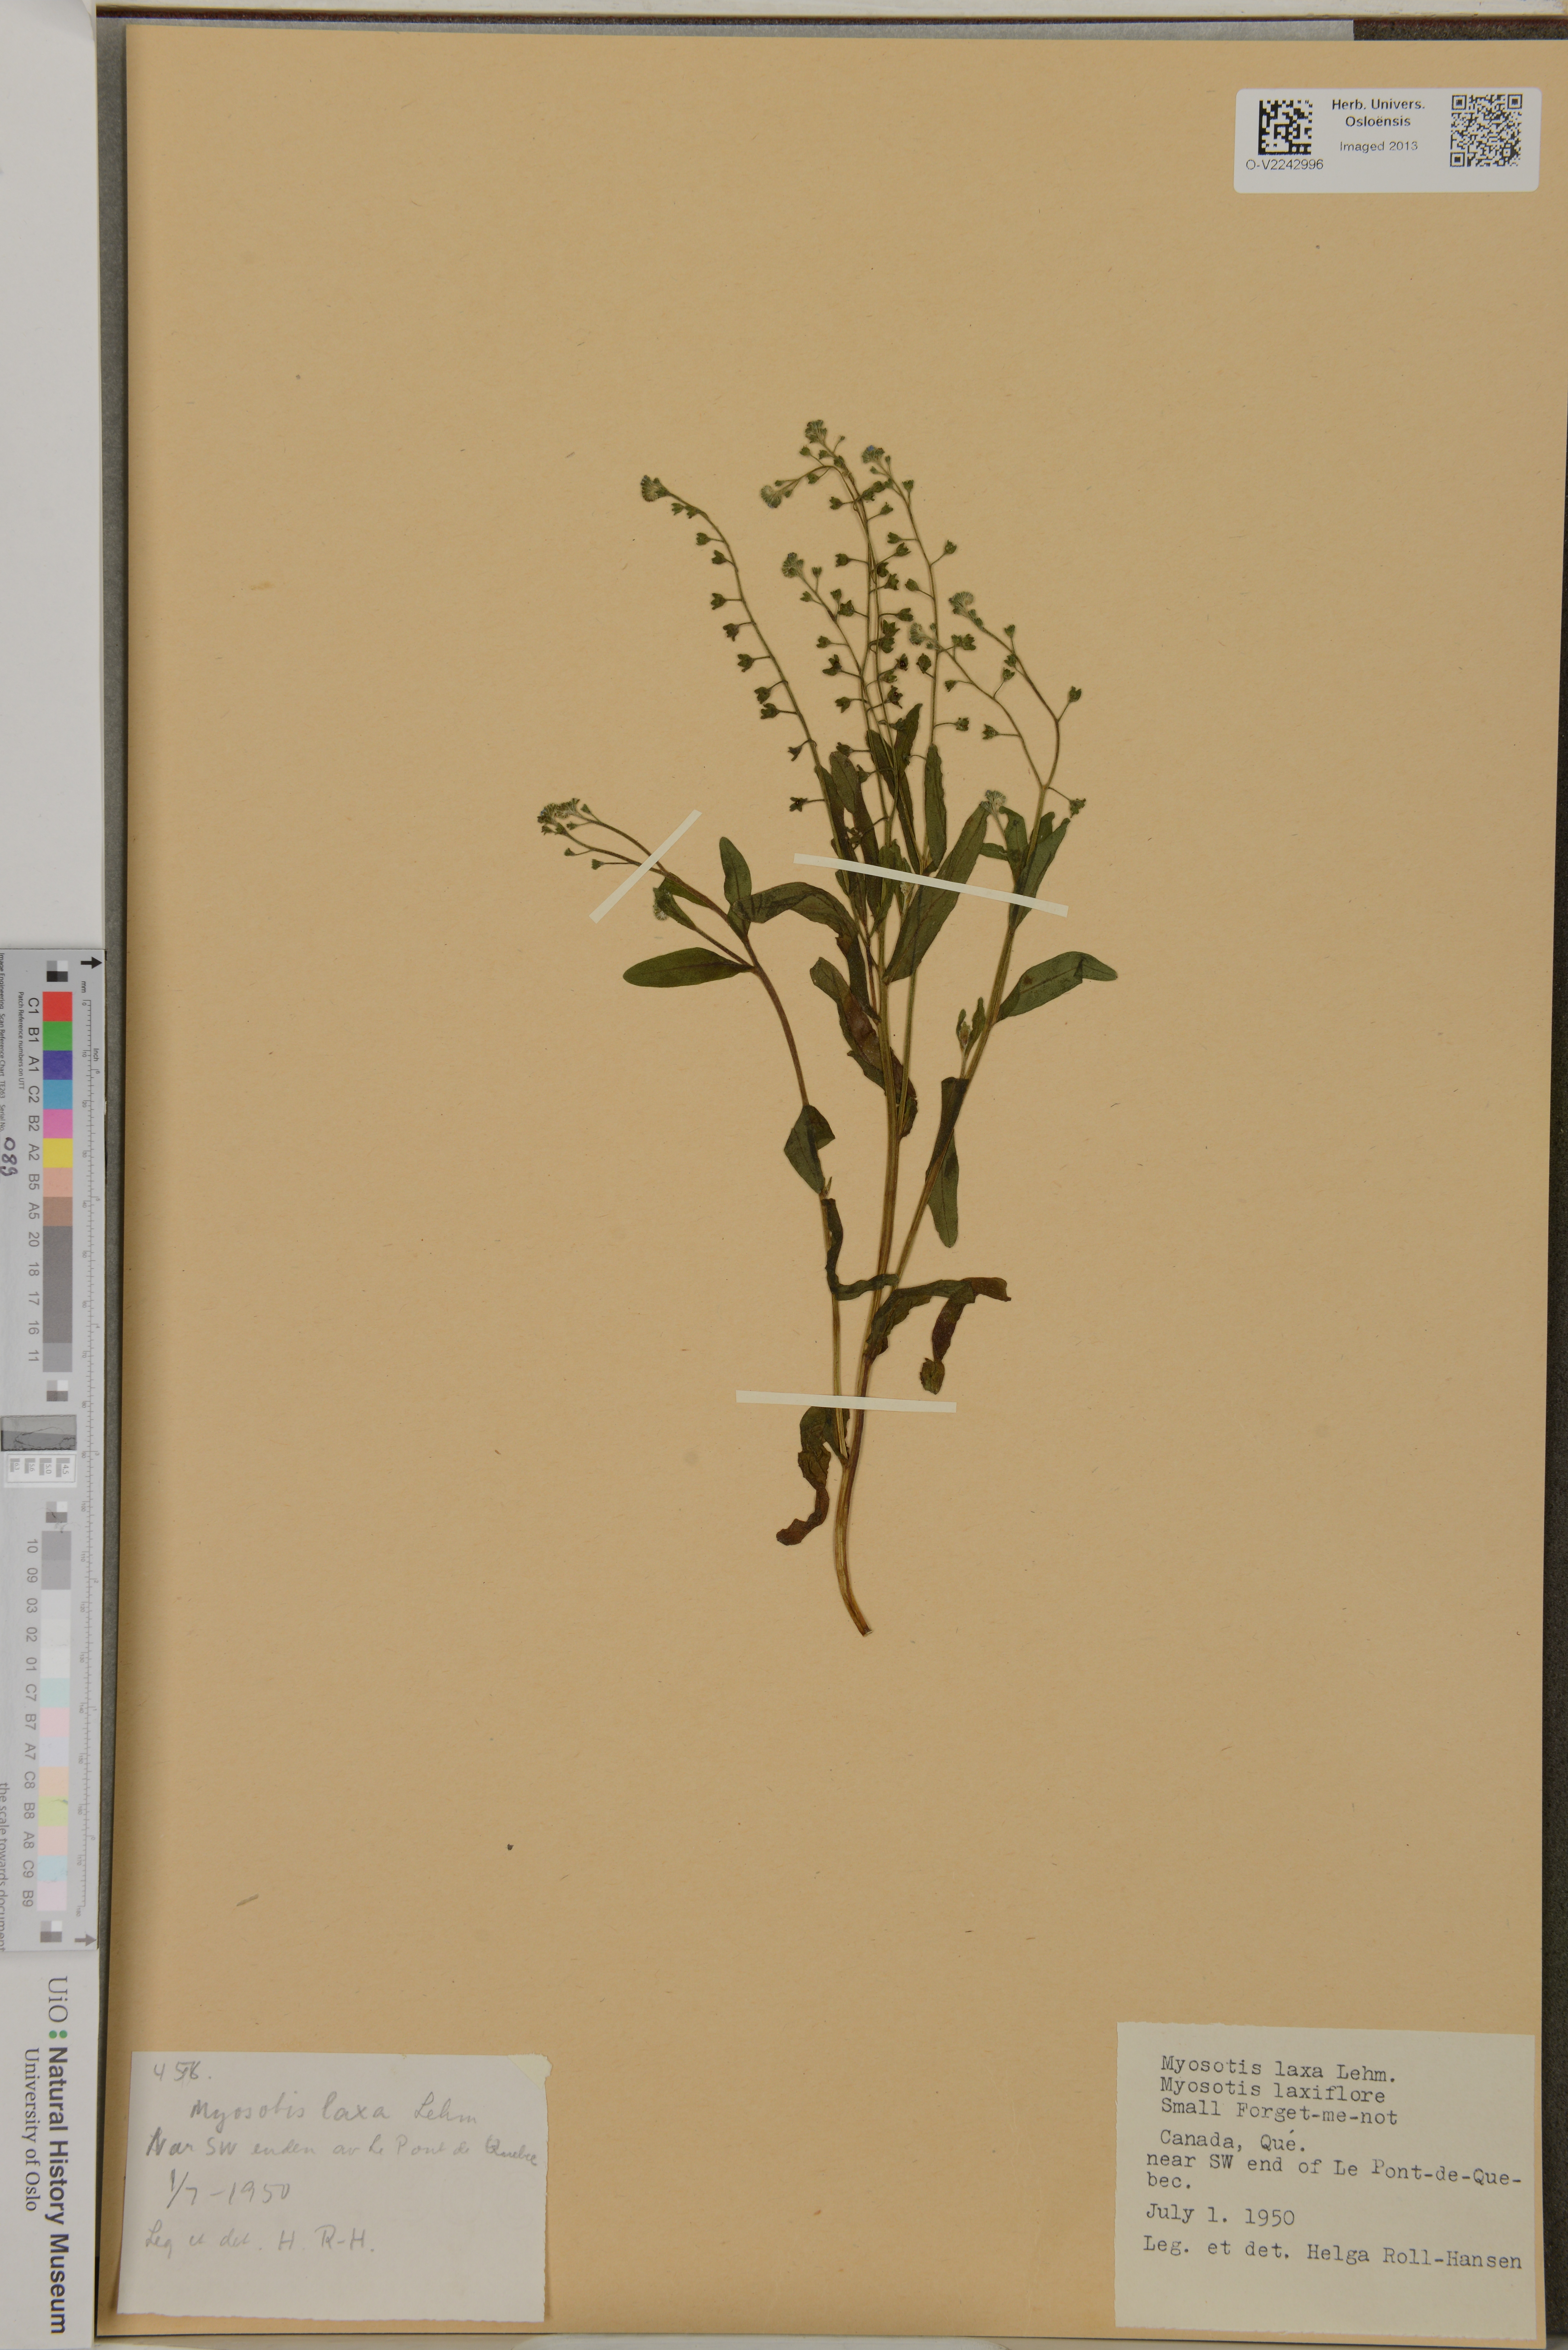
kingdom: Plantae
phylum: Tracheophyta
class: Magnoliopsida
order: Boraginales
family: Boraginaceae
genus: Myosotis
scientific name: Myosotis laxa
